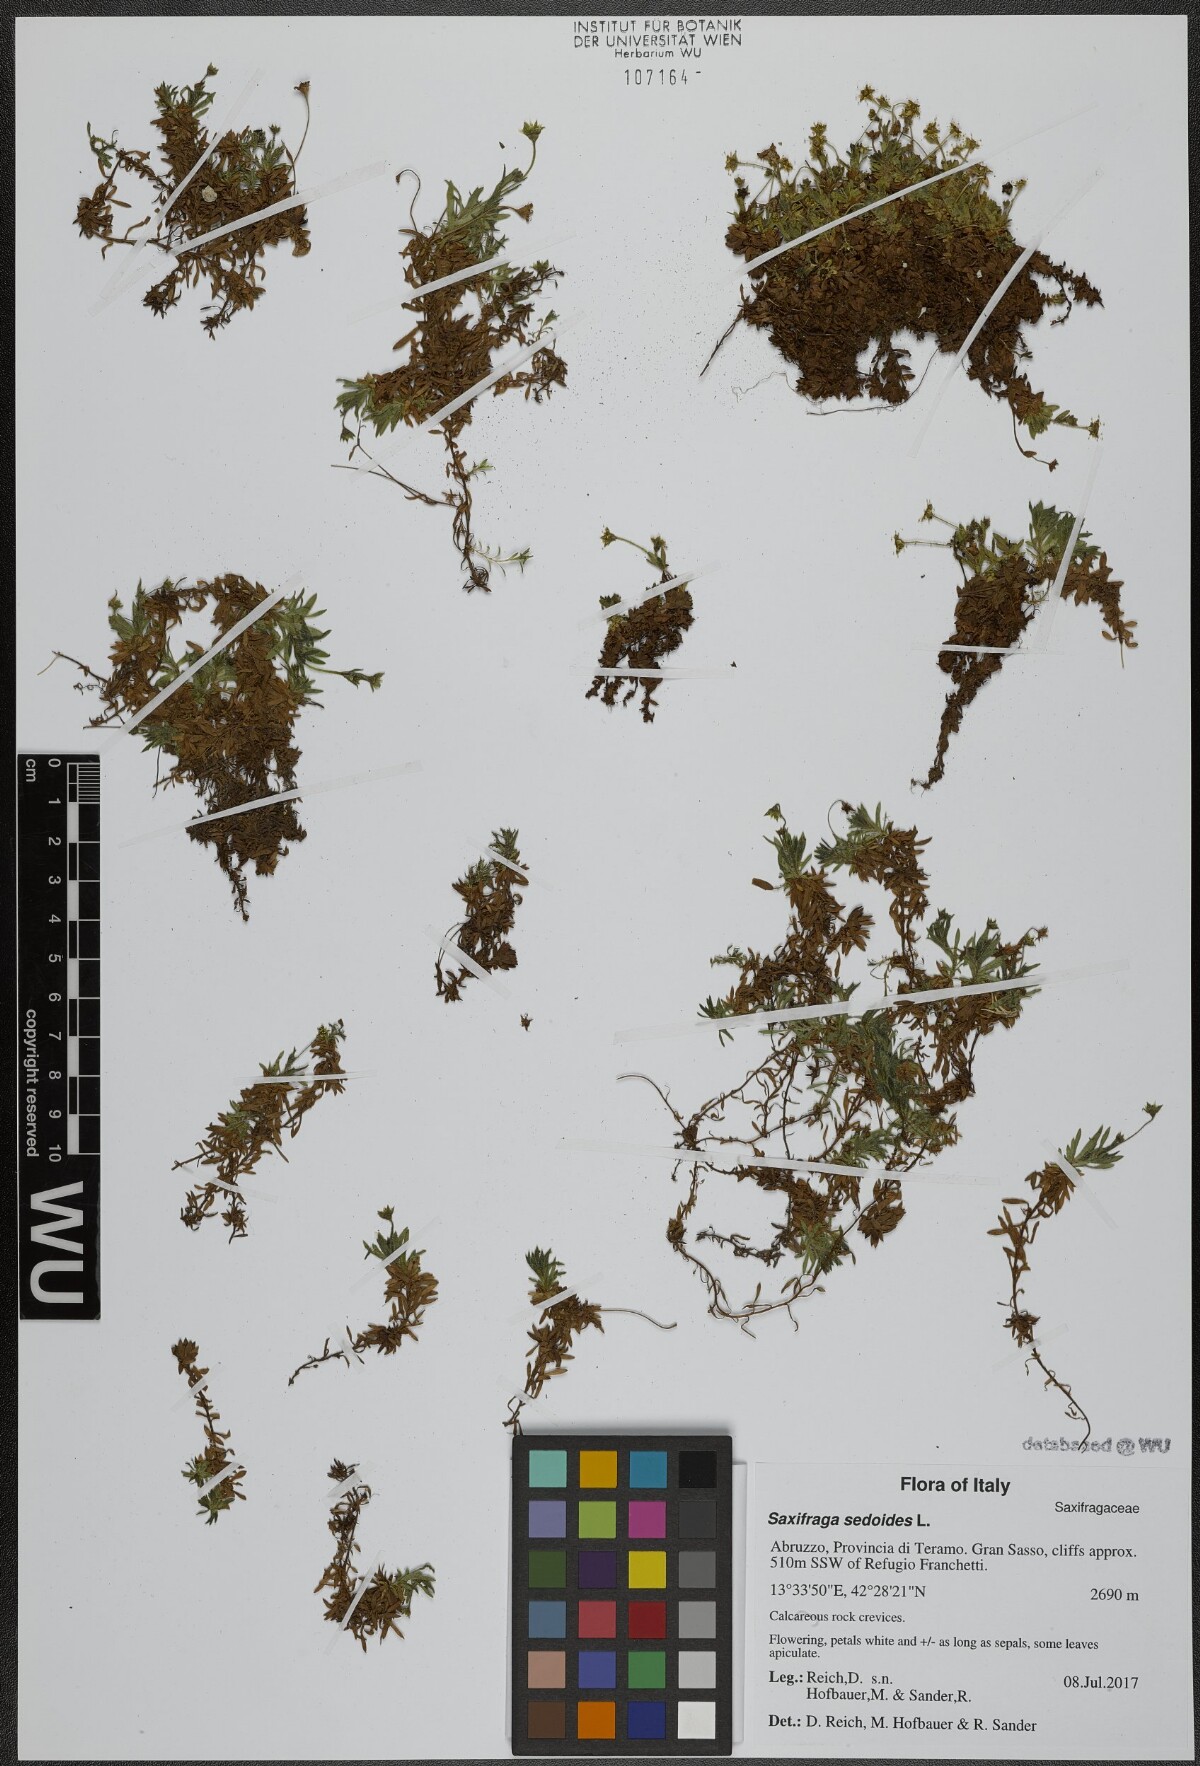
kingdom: Plantae
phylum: Tracheophyta
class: Magnoliopsida
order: Saxifragales
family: Saxifragaceae
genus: Saxifraga
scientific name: Saxifraga sedoides
